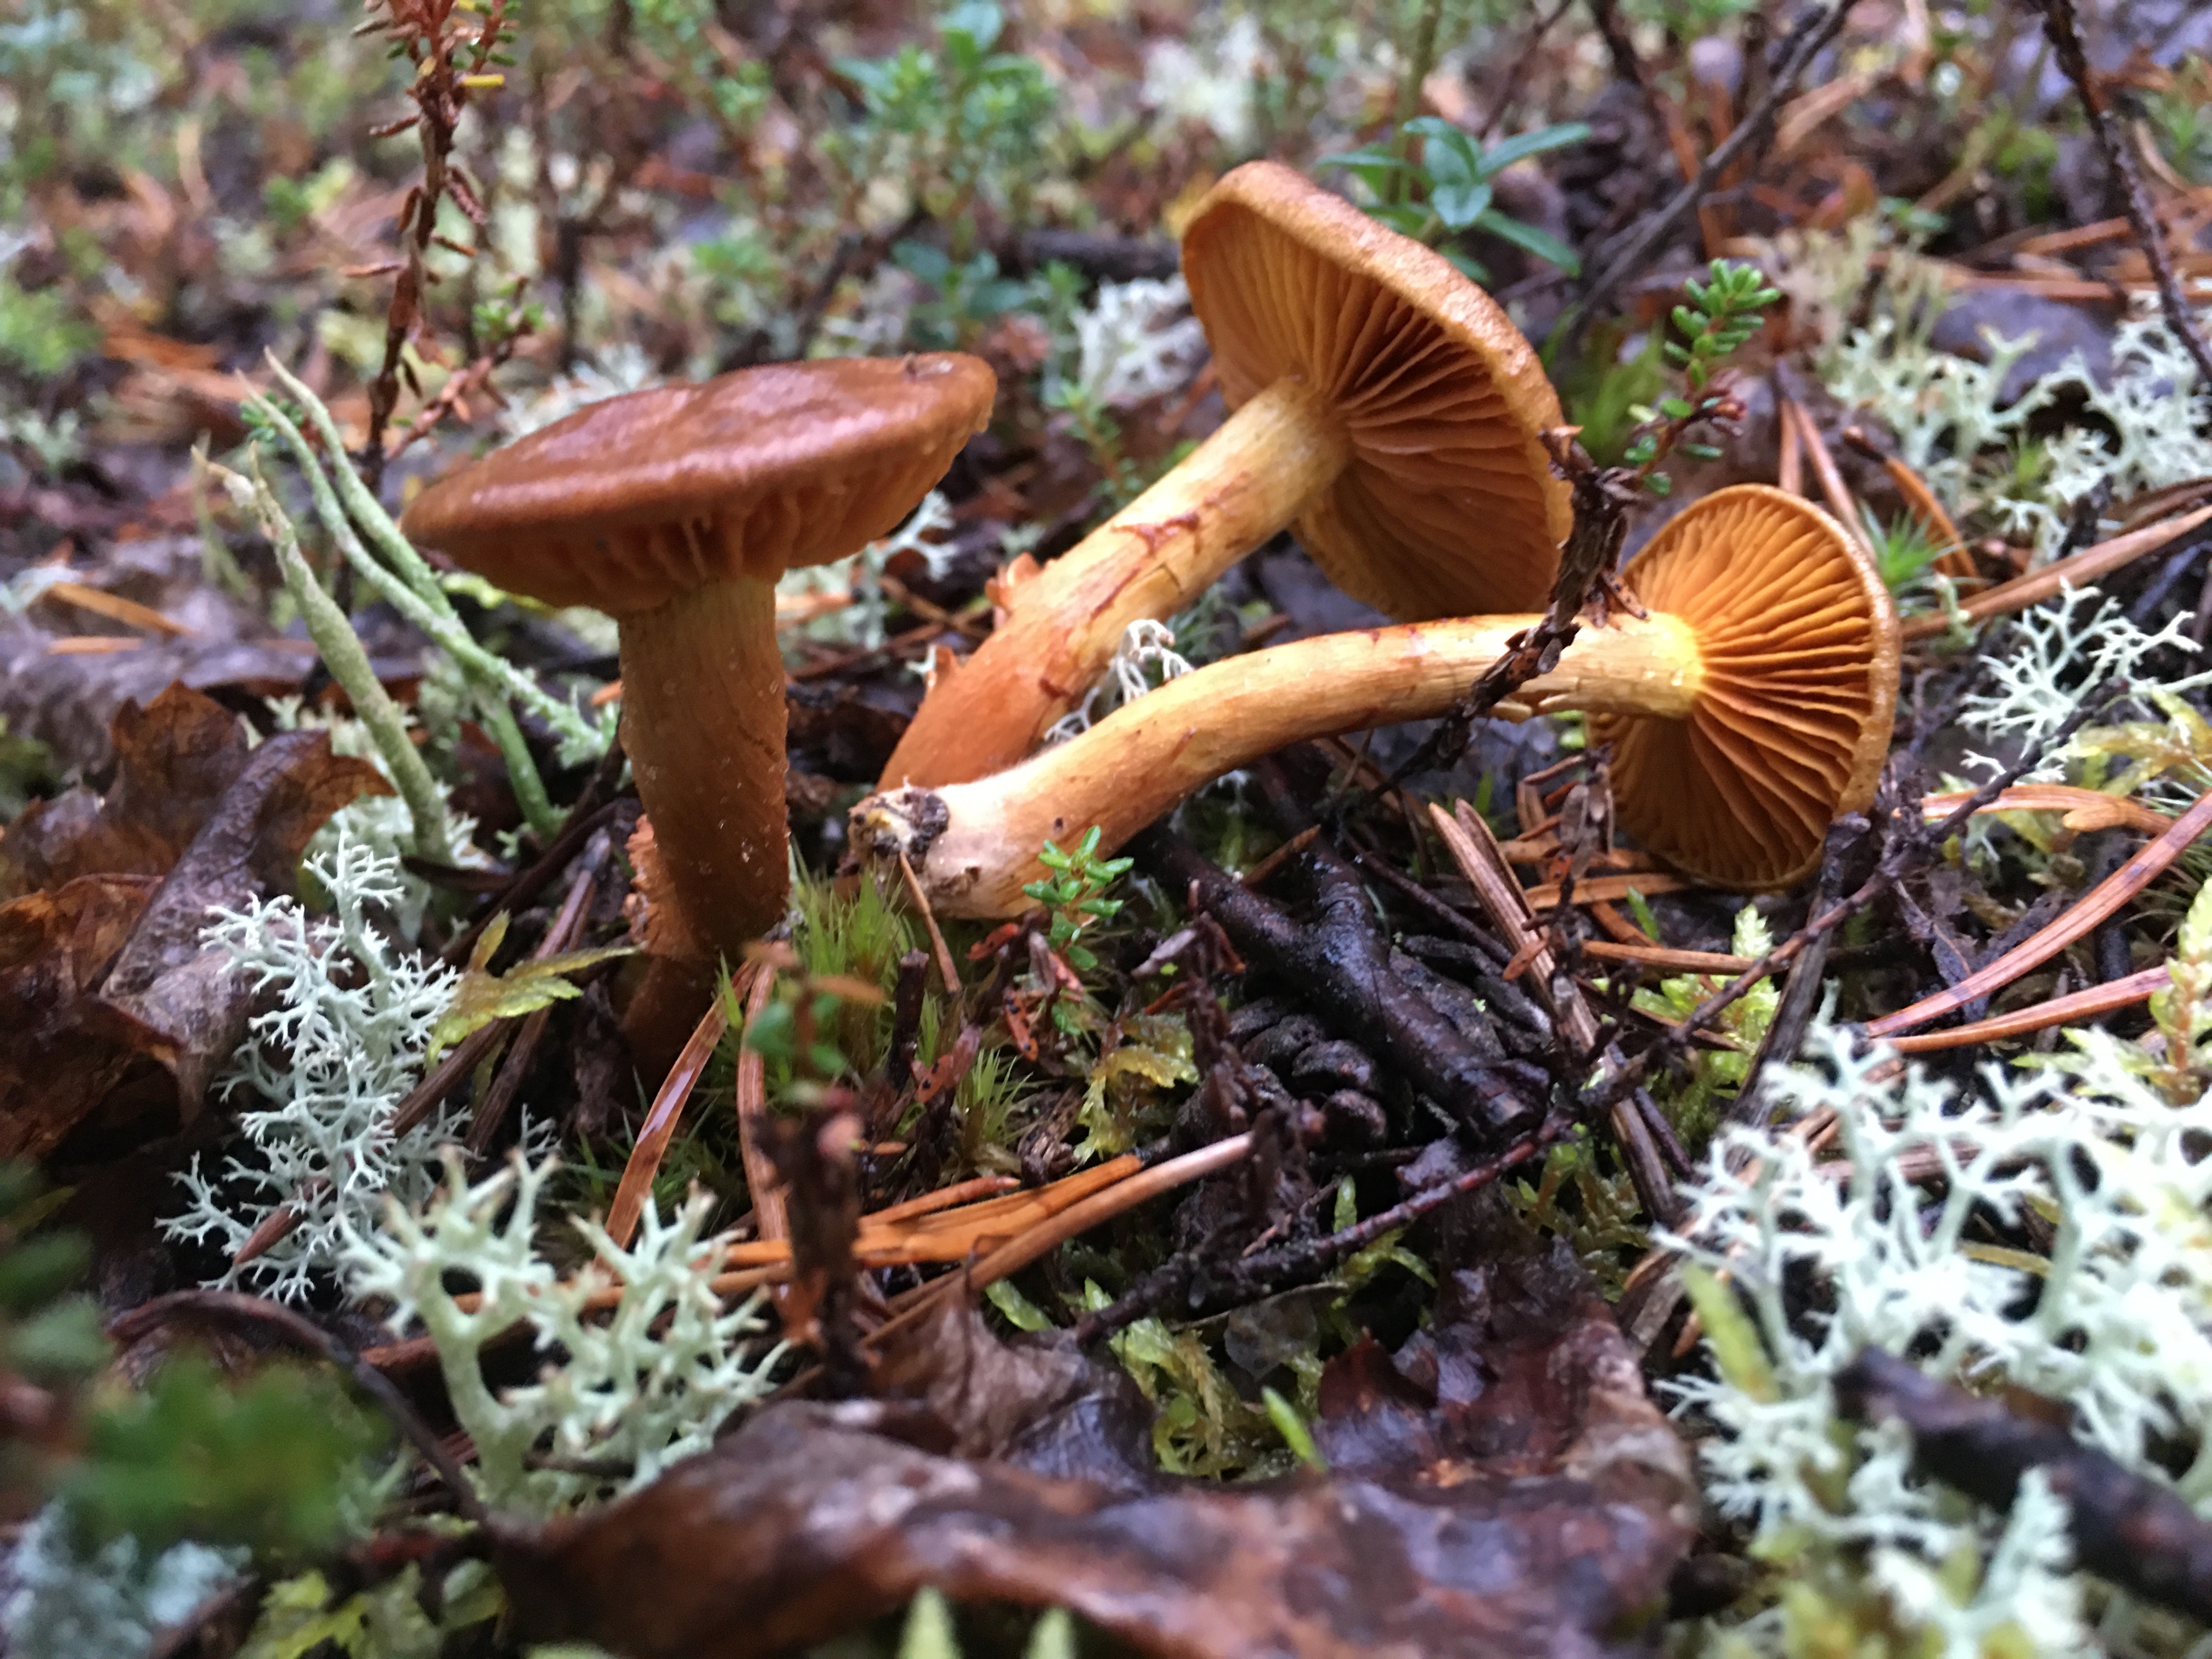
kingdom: Fungi
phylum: Basidiomycota
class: Agaricomycetes
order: Agaricales
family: Cortinariaceae
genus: Cortinarius
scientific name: Cortinarius malicorius
